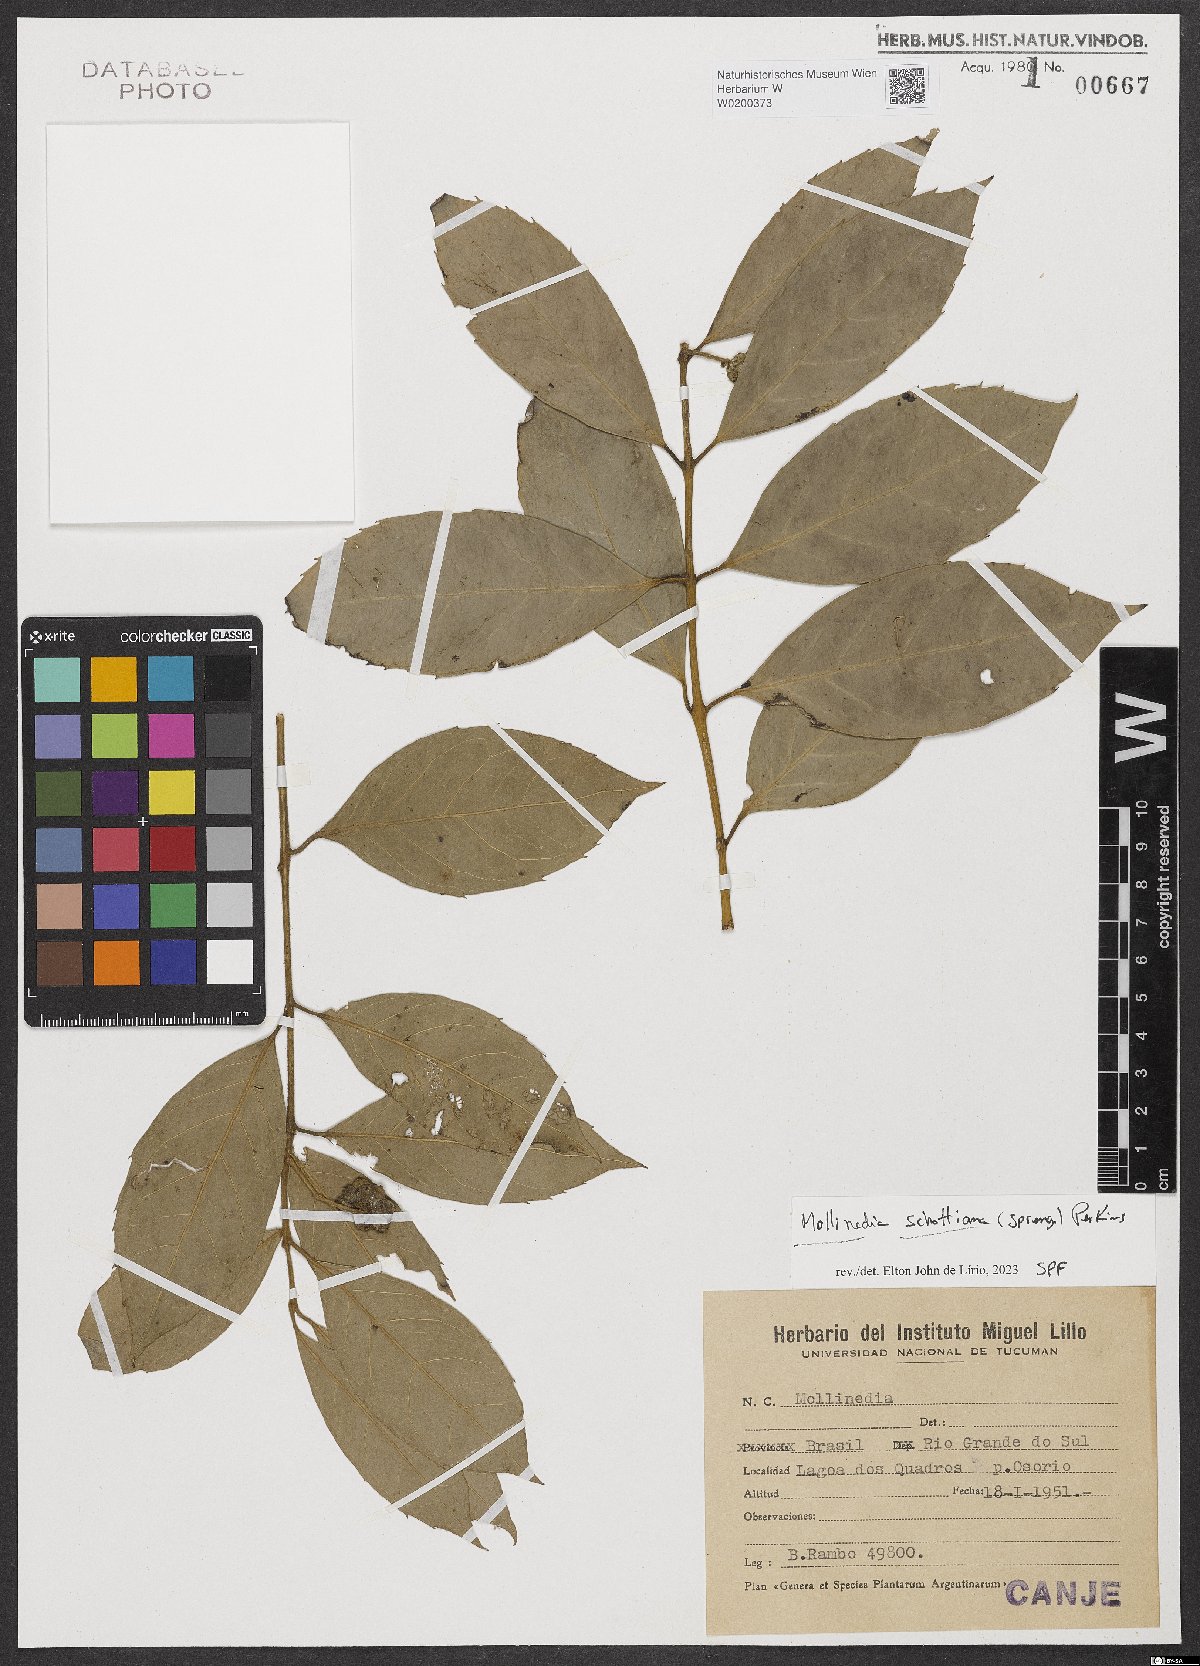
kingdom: Plantae
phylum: Tracheophyta
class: Magnoliopsida
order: Laurales
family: Monimiaceae
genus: Mollinedia
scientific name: Mollinedia umbellata
